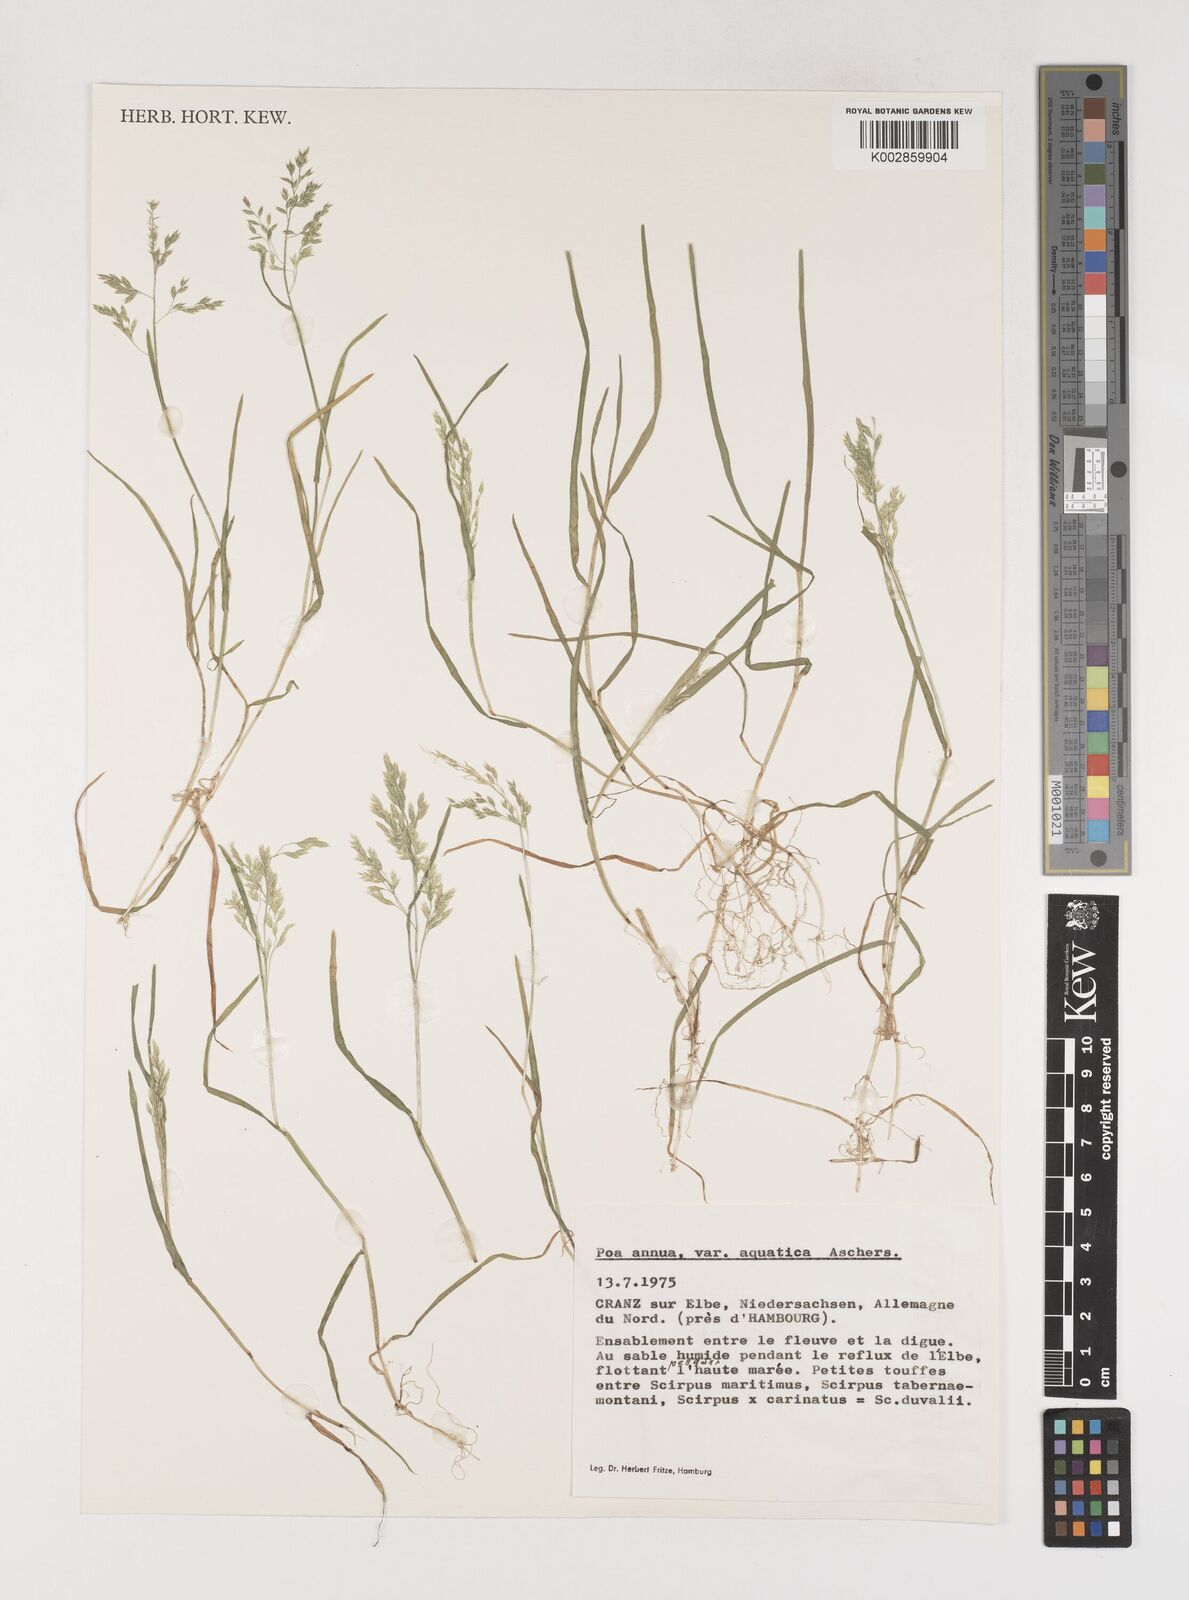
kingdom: Plantae
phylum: Tracheophyta
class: Liliopsida
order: Poales
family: Poaceae
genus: Poa
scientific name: Poa annua
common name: Annual bluegrass
